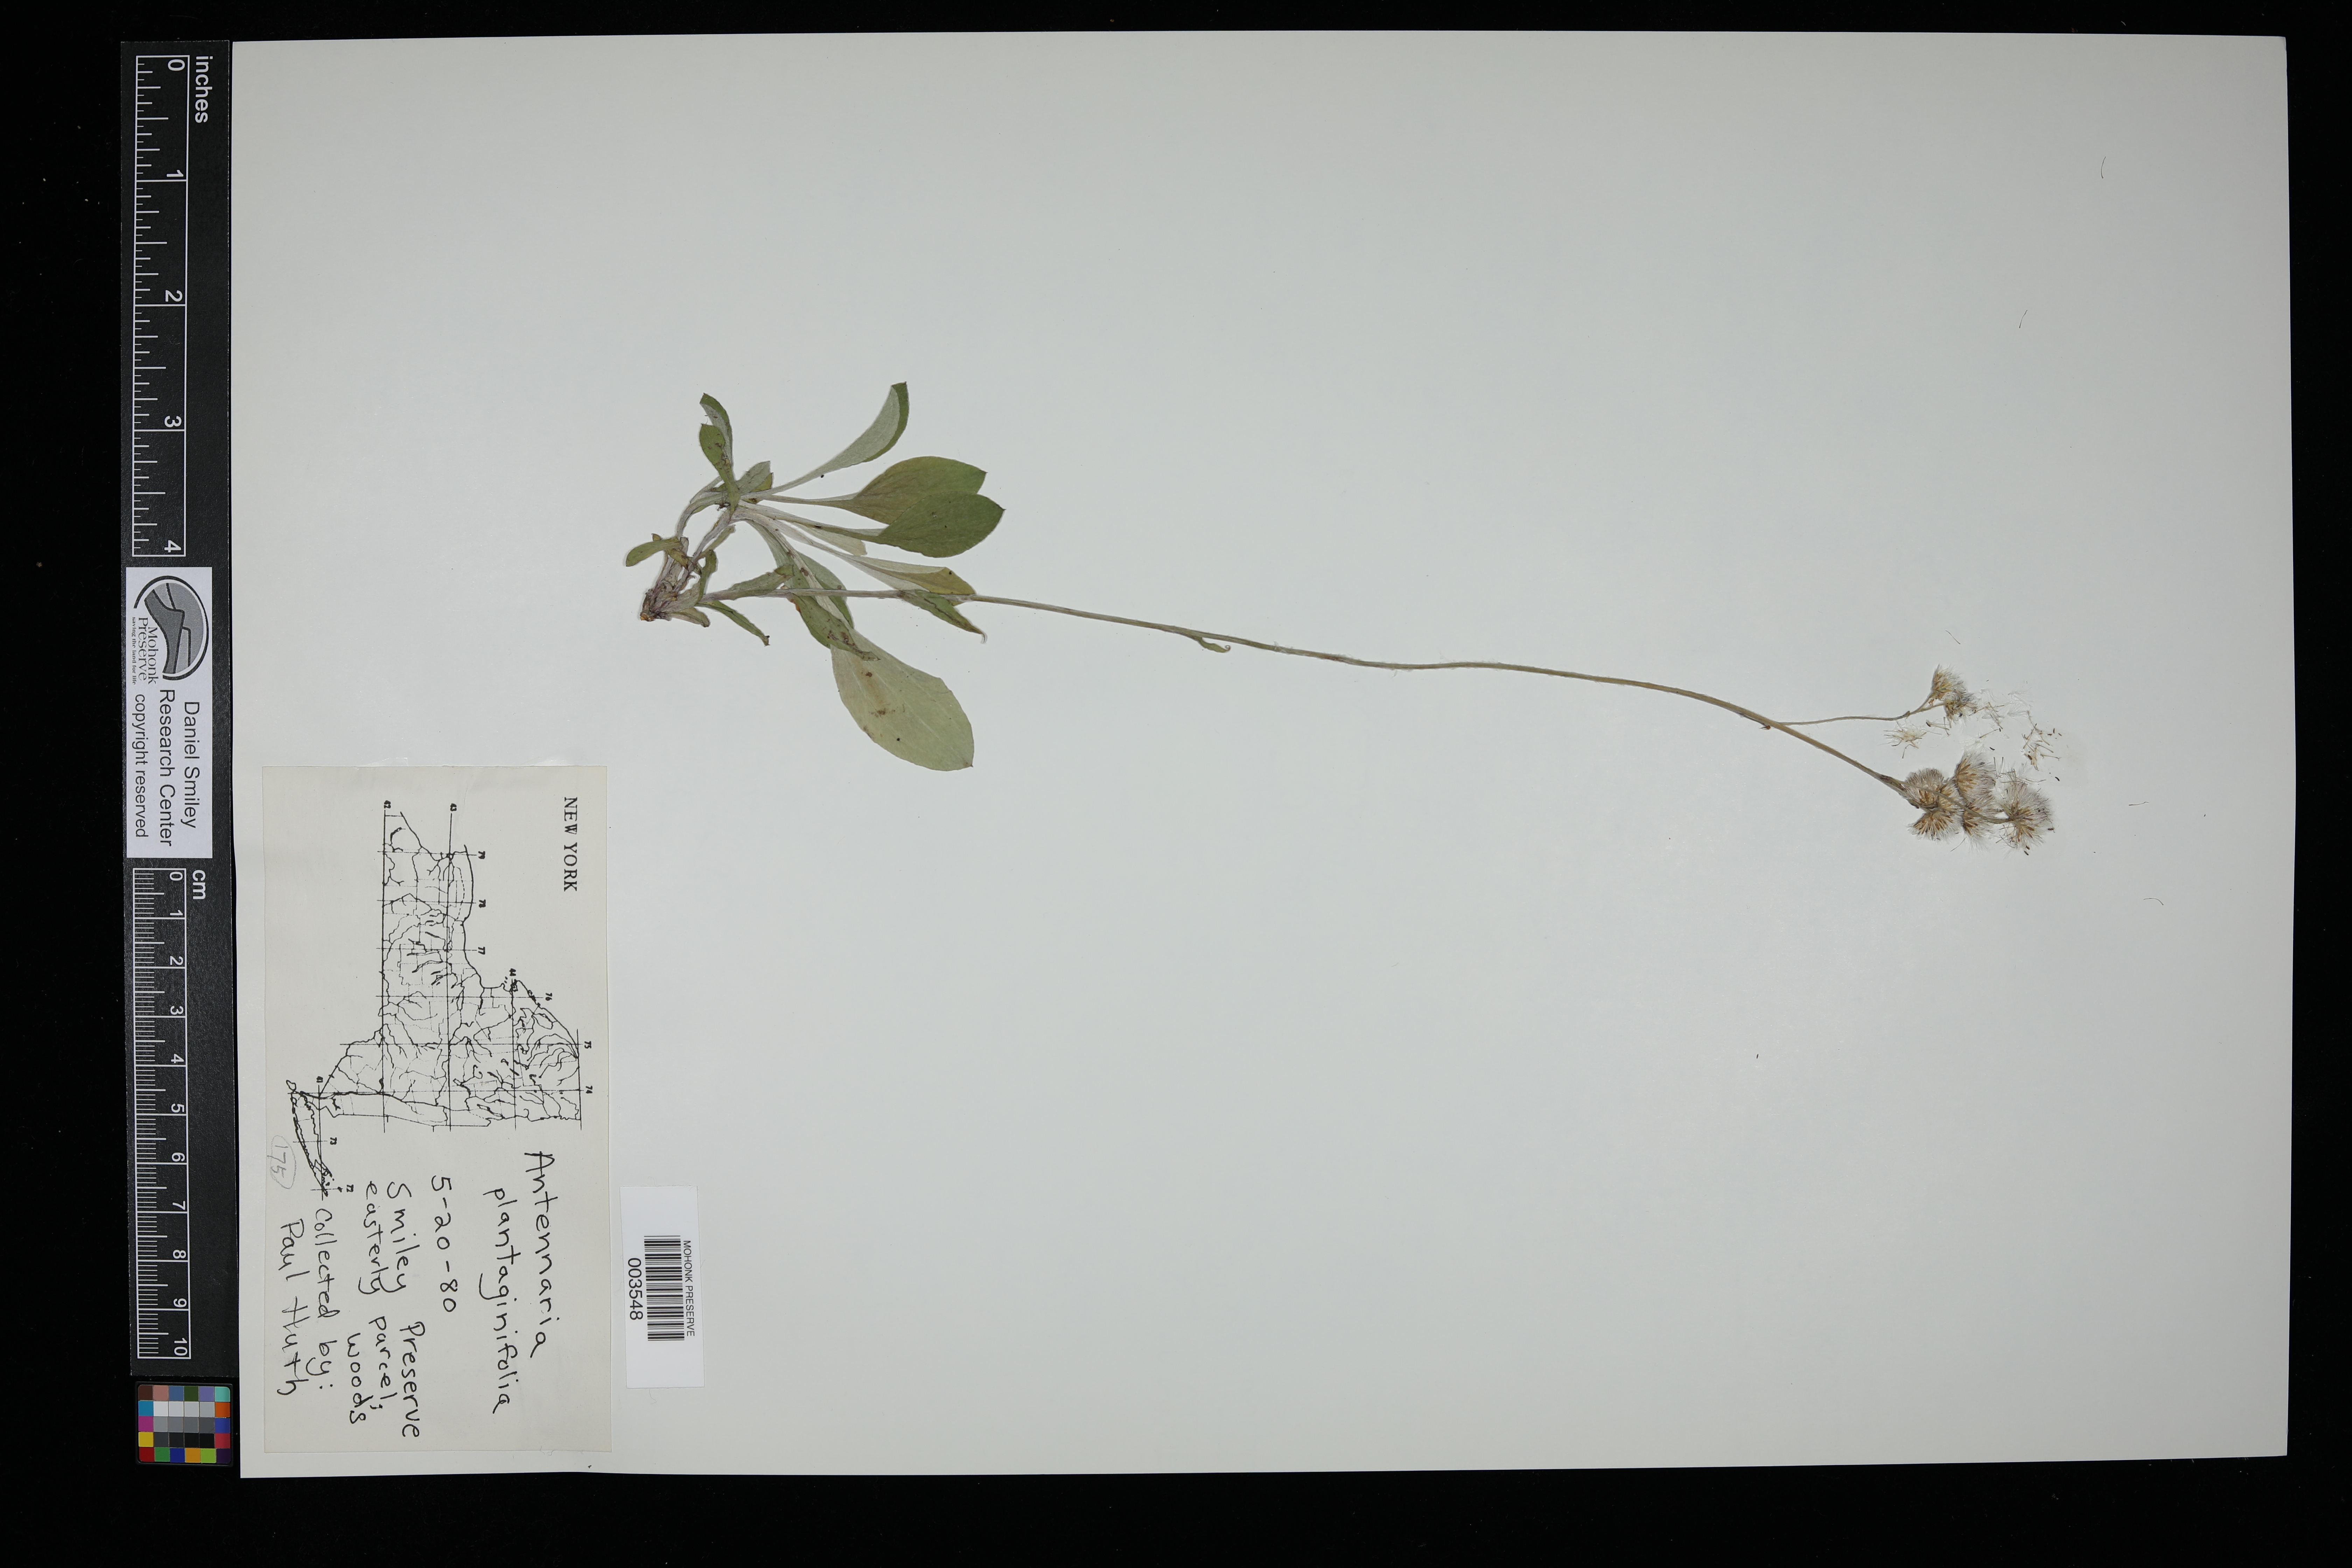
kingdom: Plantae
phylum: Tracheophyta
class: Magnoliopsida
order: Asterales
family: Asteraceae
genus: Antennaria
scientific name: Antennaria plantaginifolia
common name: Plantain-leaved pussytoes
